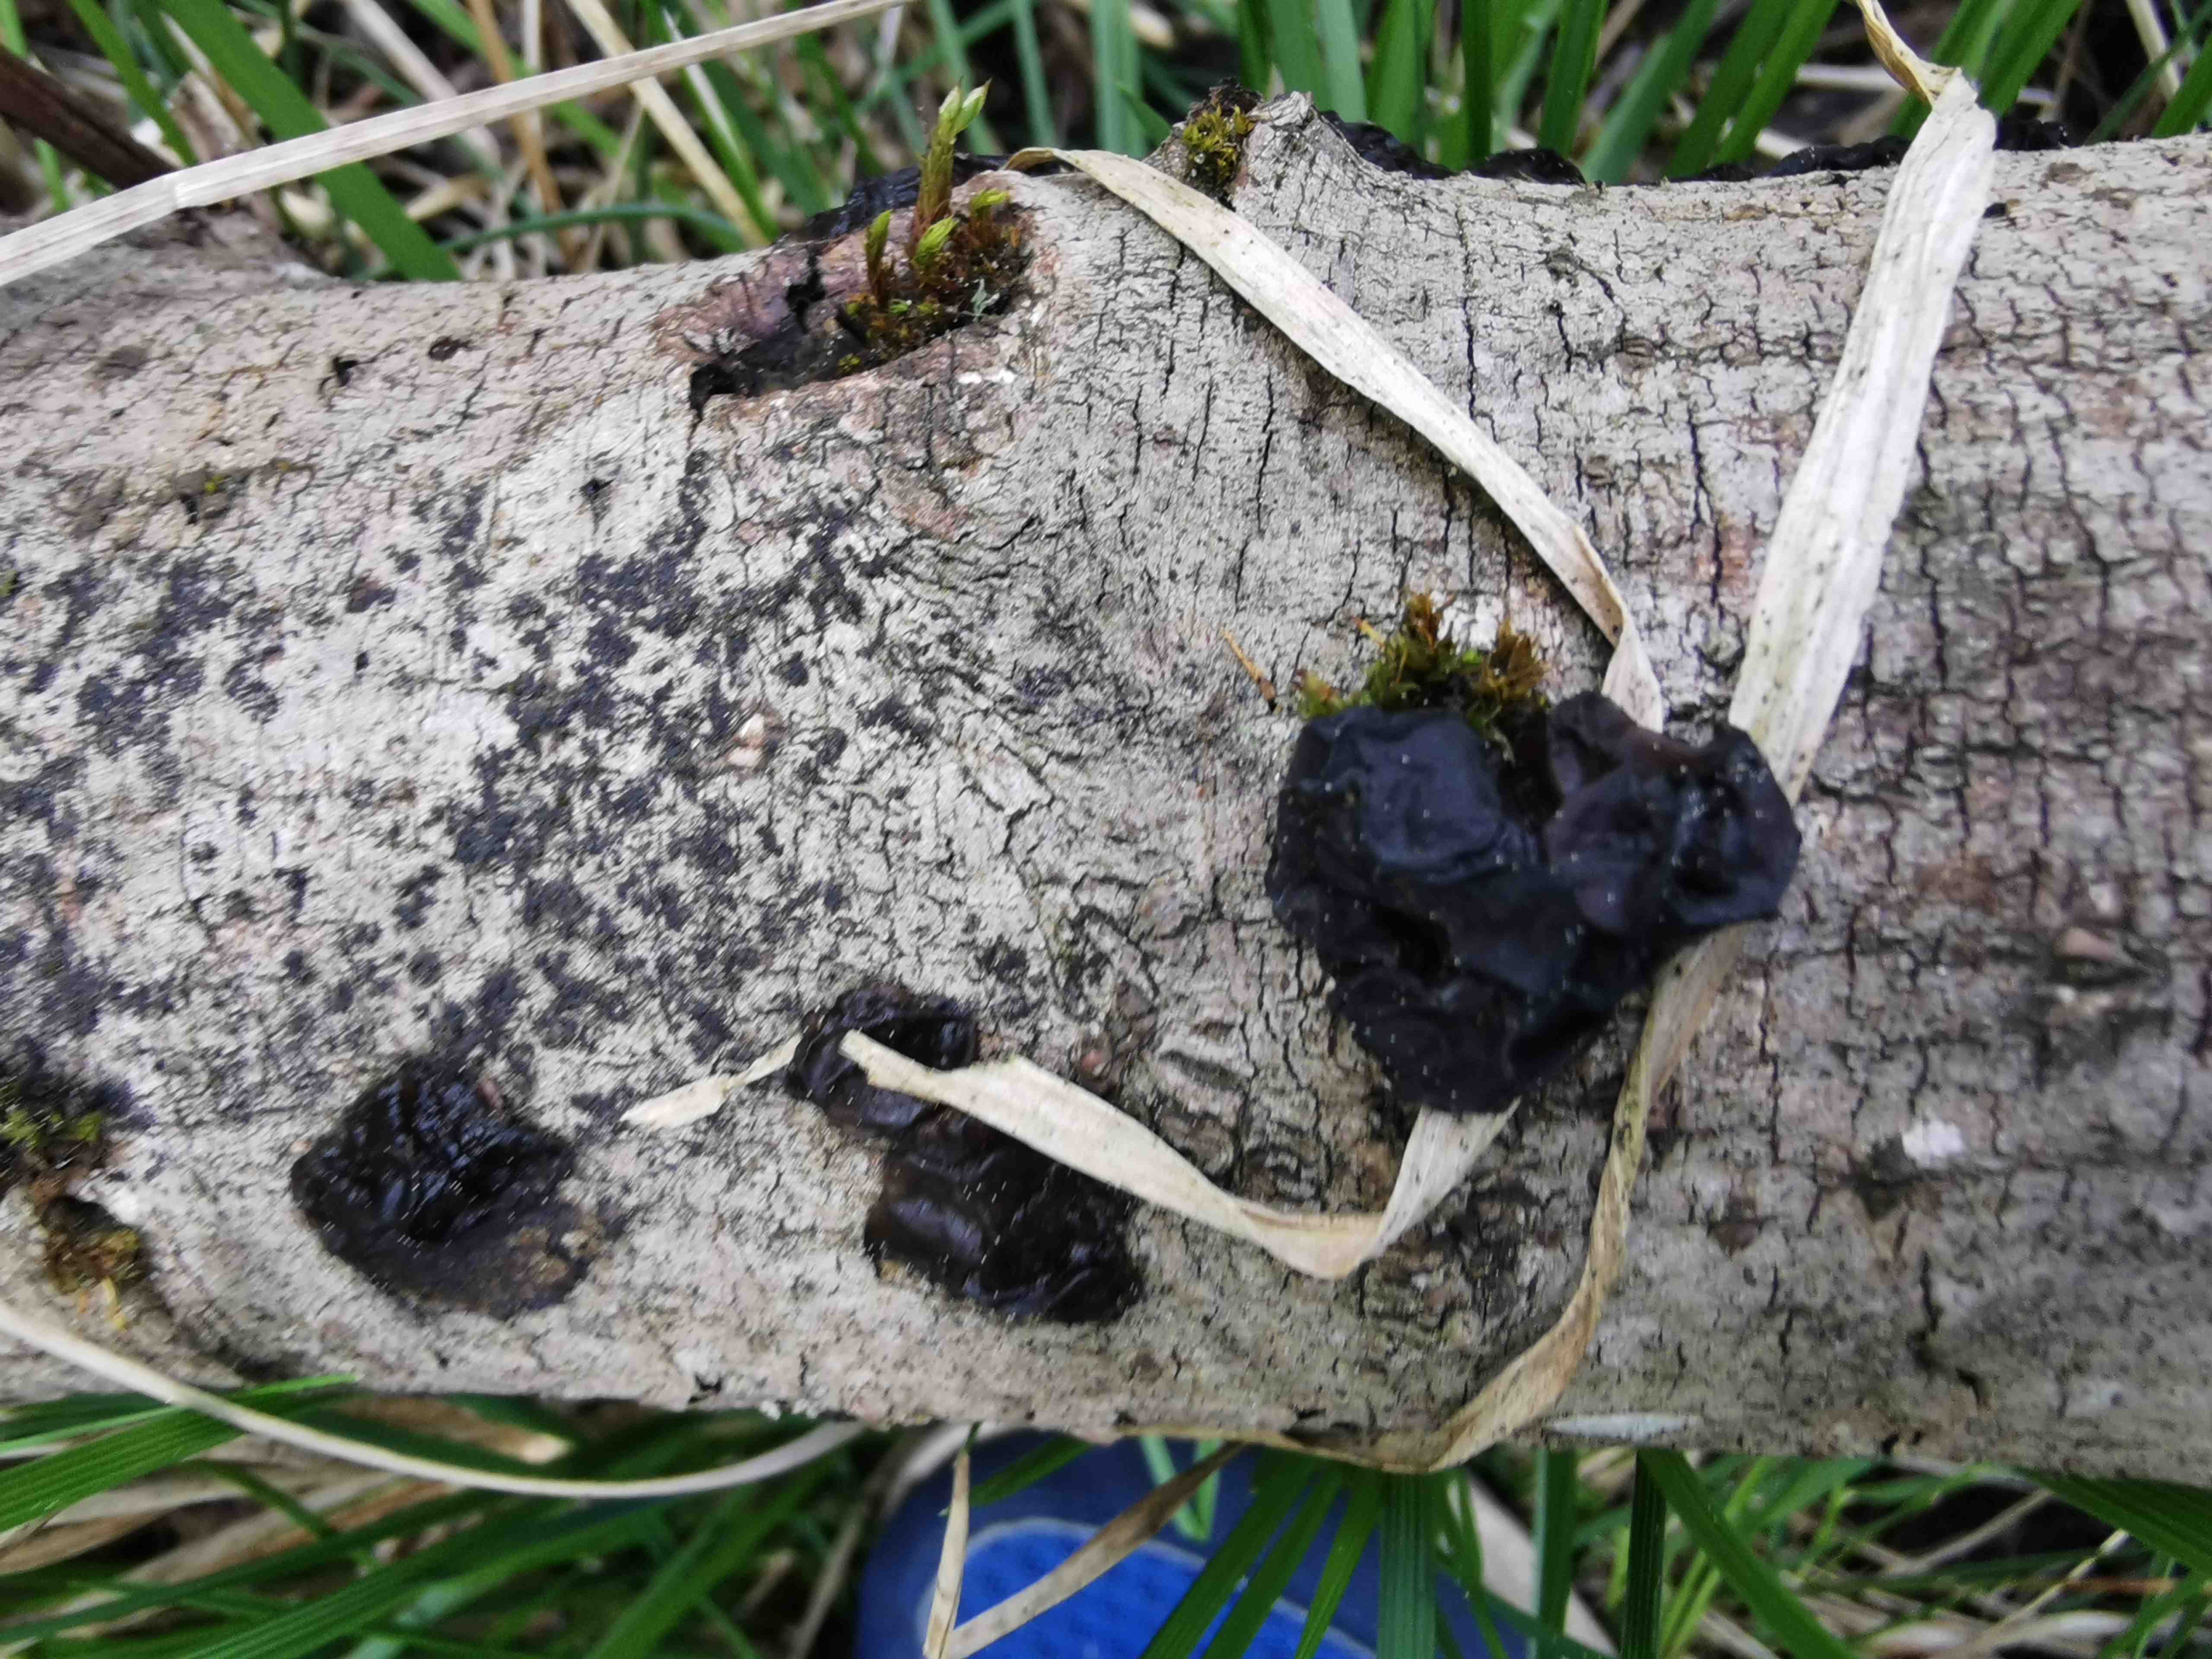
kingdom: Fungi
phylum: Basidiomycota
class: Agaricomycetes
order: Auriculariales
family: Auriculariaceae
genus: Exidia
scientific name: Exidia nigricans
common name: almindelig bævretop
